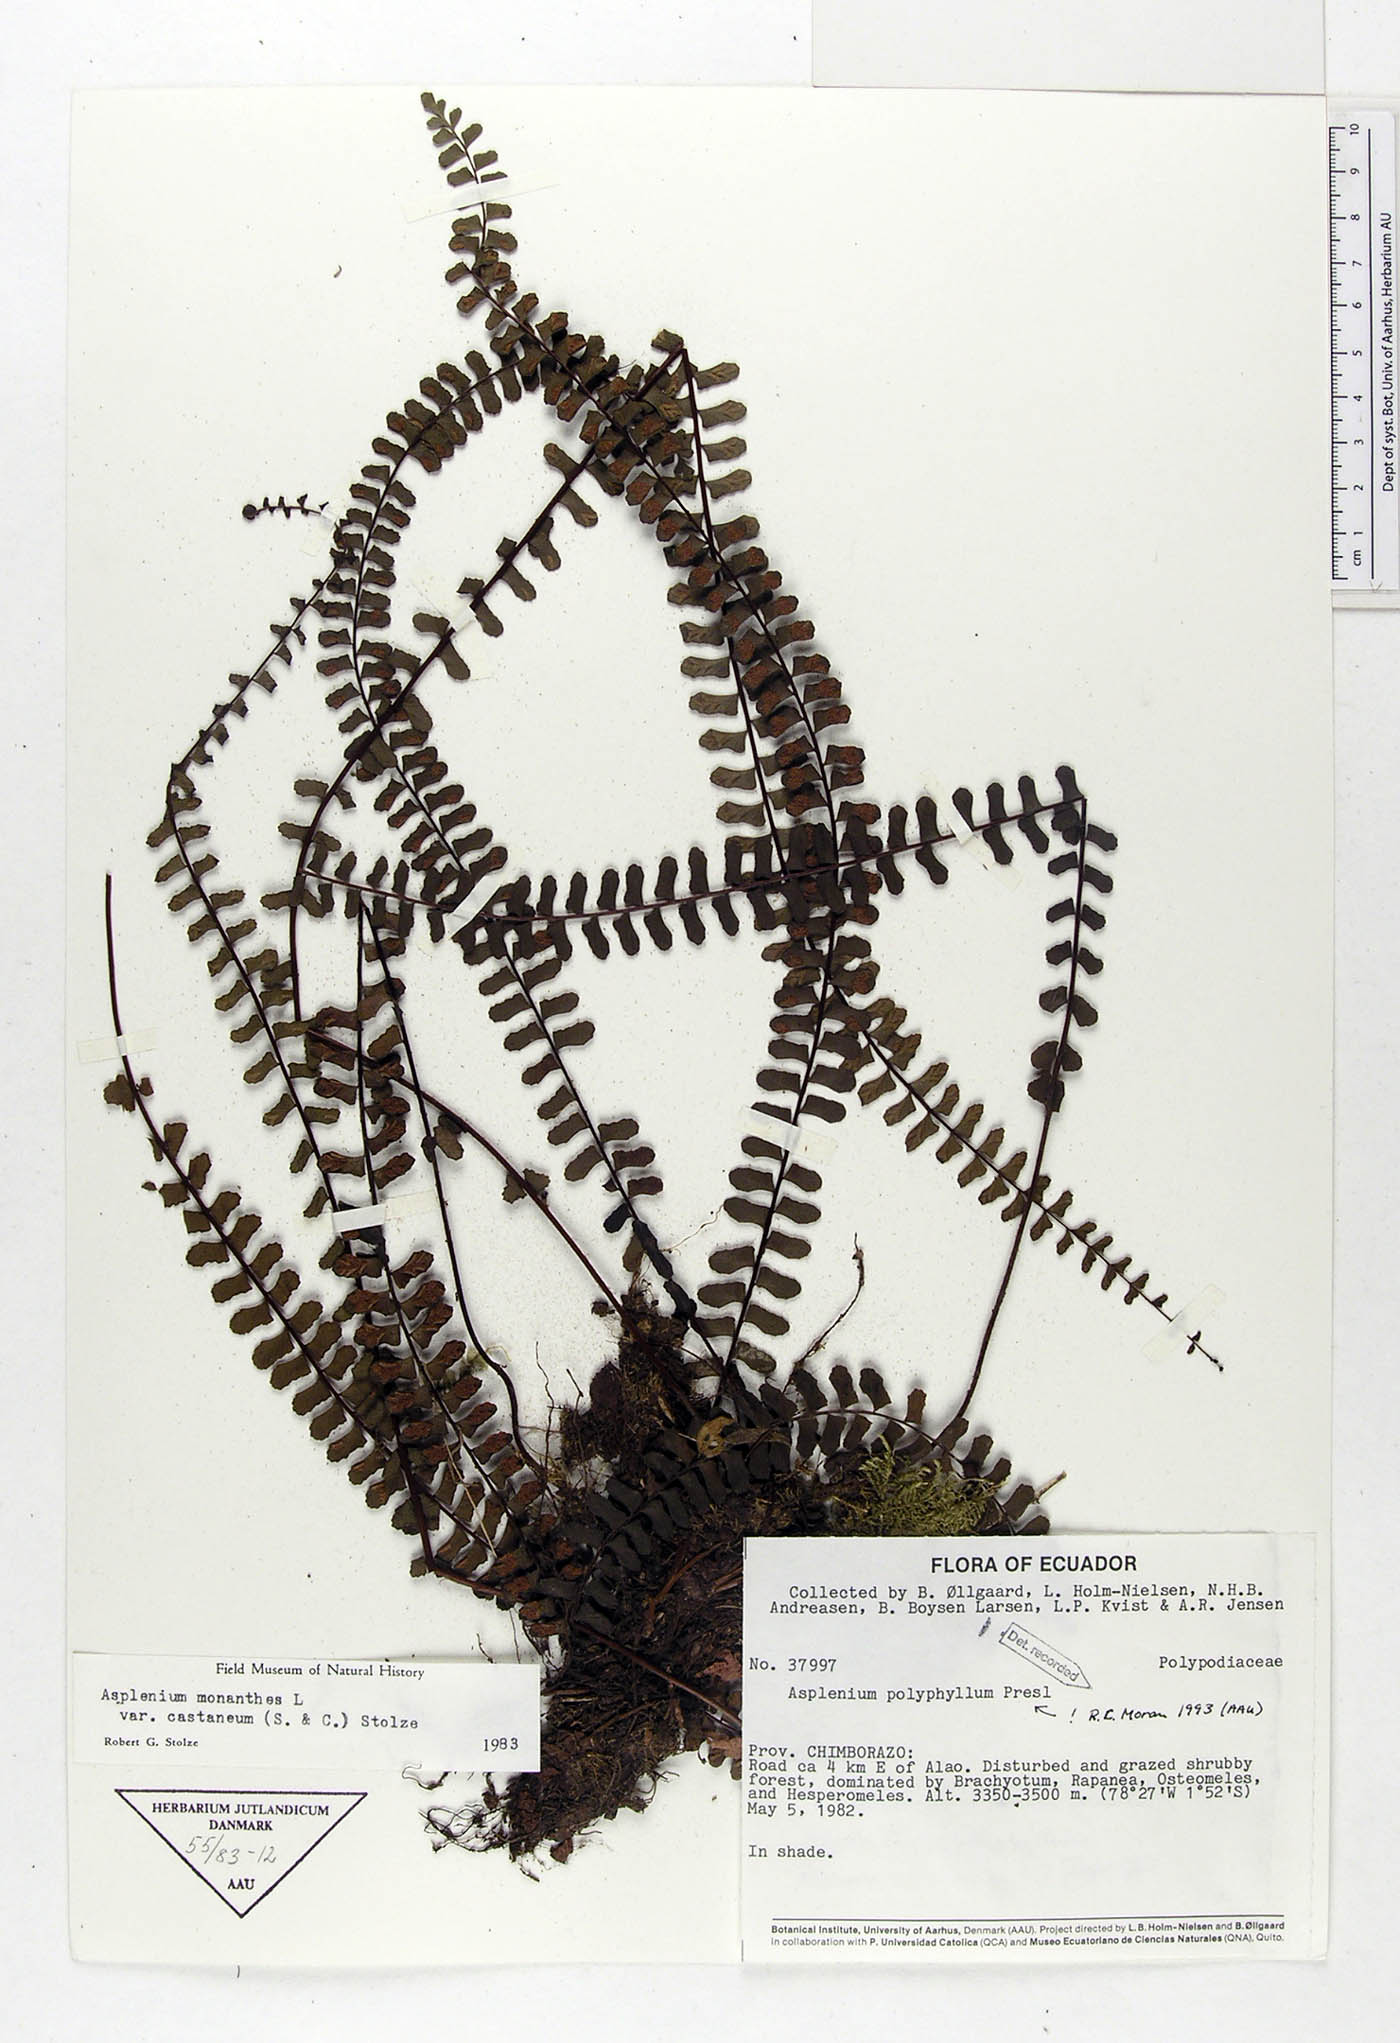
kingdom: Plantae
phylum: Tracheophyta
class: Polypodiopsida
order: Polypodiales
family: Aspleniaceae
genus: Asplenium
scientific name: Asplenium polyphyllum
